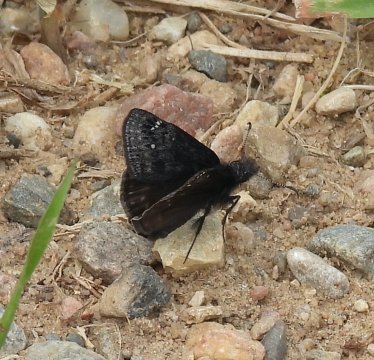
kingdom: Animalia
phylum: Arthropoda
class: Insecta
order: Lepidoptera
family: Hesperiidae
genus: Gesta
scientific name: Gesta
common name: Persius Duskywing
